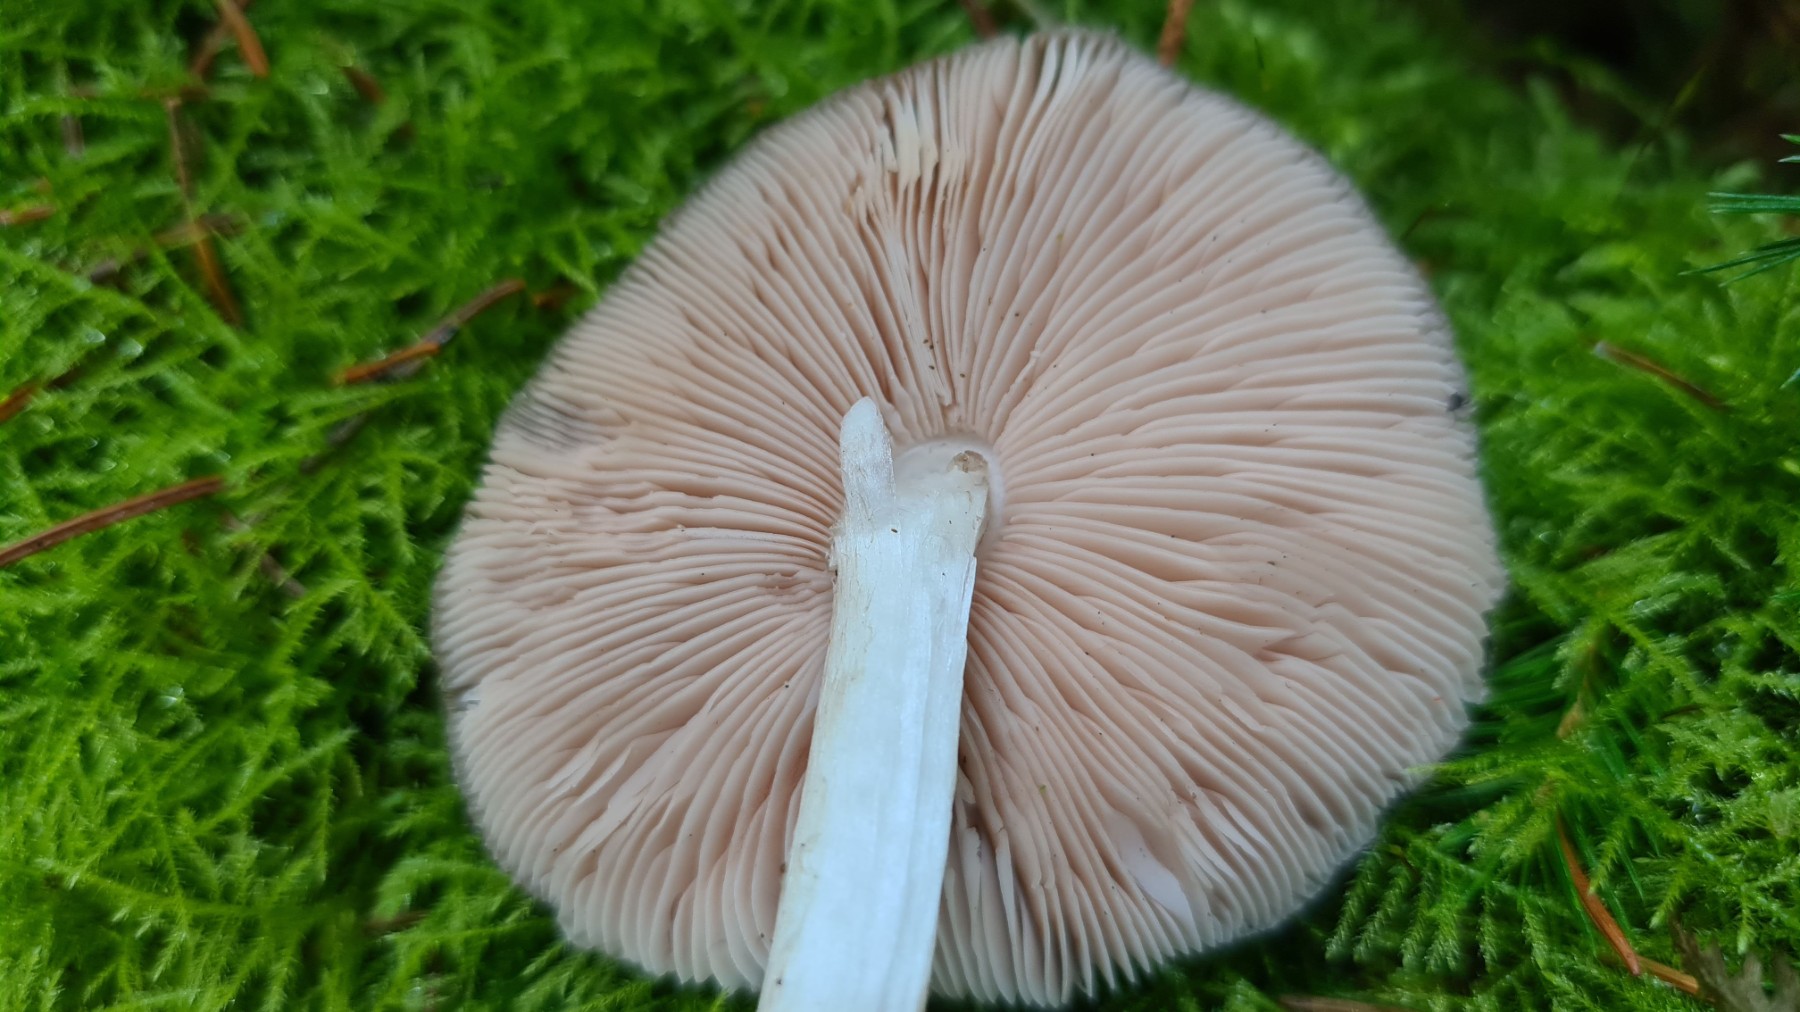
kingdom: Fungi
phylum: Basidiomycota
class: Agaricomycetes
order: Agaricales
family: Pluteaceae
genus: Pluteus
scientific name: Pluteus pouzarianus
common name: plantage-skærmhat
